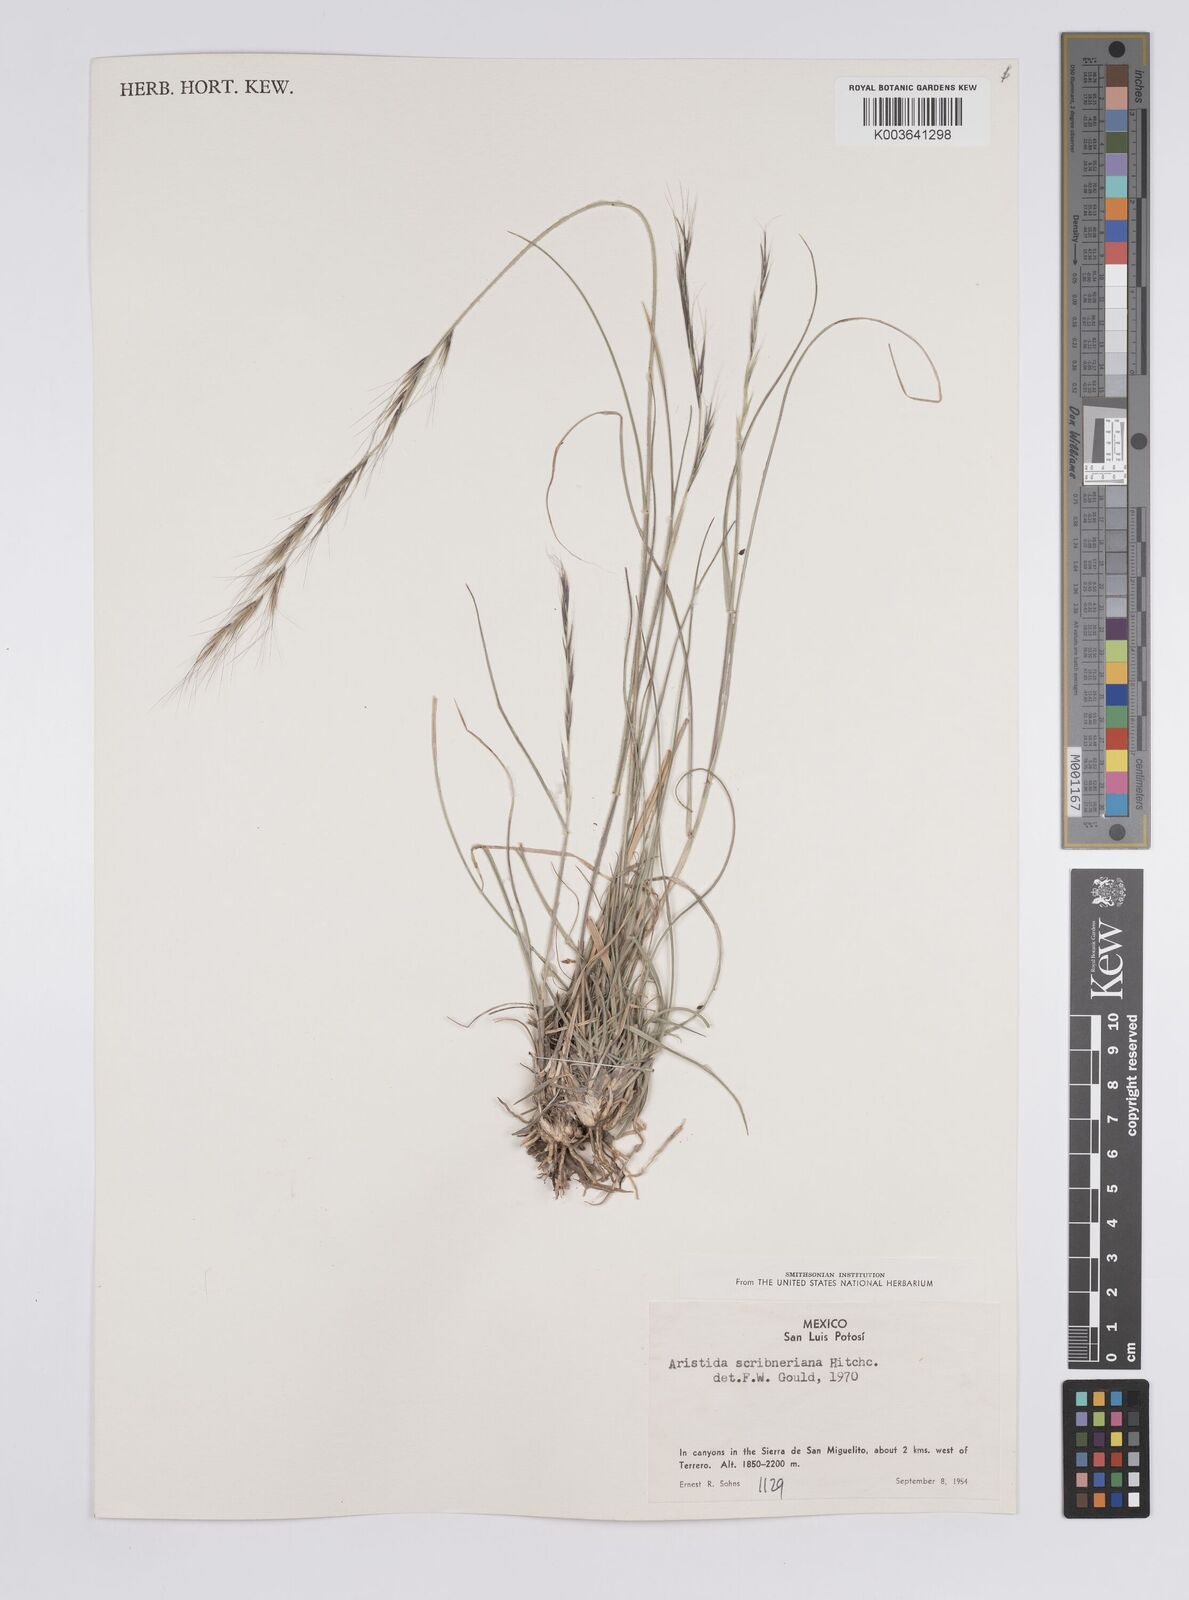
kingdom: Plantae
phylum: Tracheophyta
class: Liliopsida
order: Poales
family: Poaceae
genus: Aristida
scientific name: Aristida scribneriana
